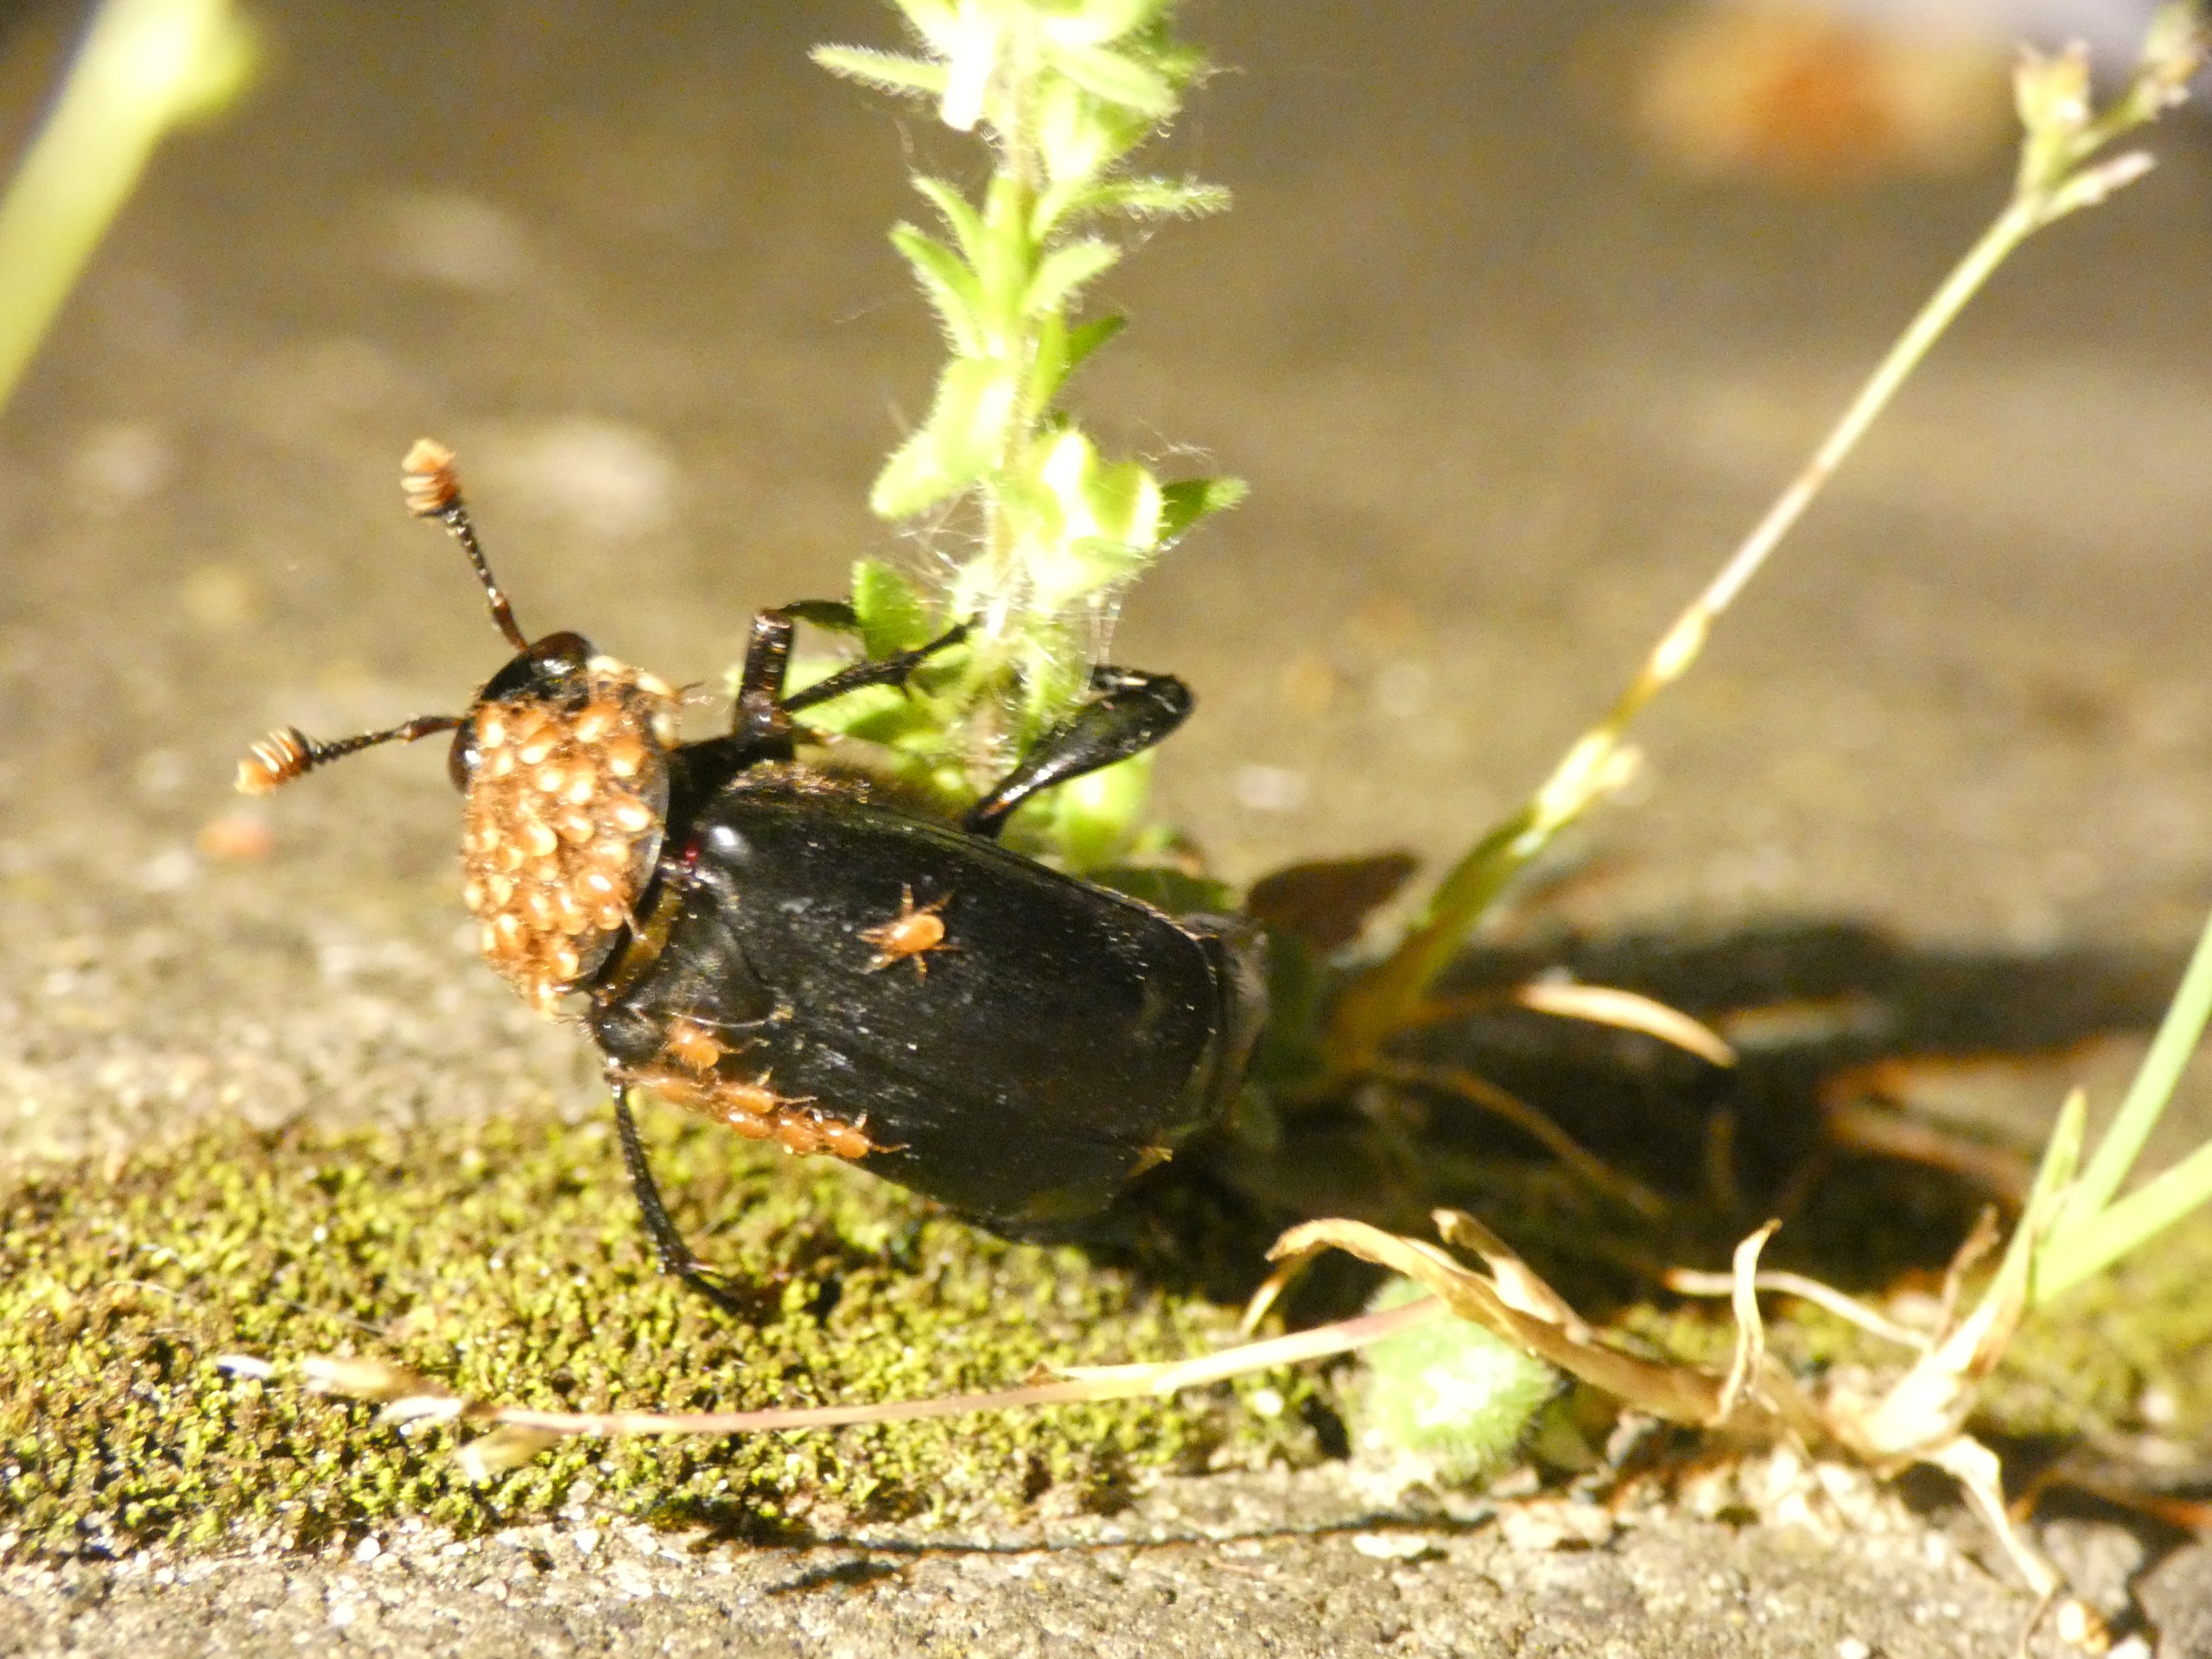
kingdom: Animalia
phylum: Arthropoda
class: Insecta
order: Coleoptera
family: Staphylinidae
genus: Nicrophorus
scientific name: Nicrophorus humator
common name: Sort ådselgraver
